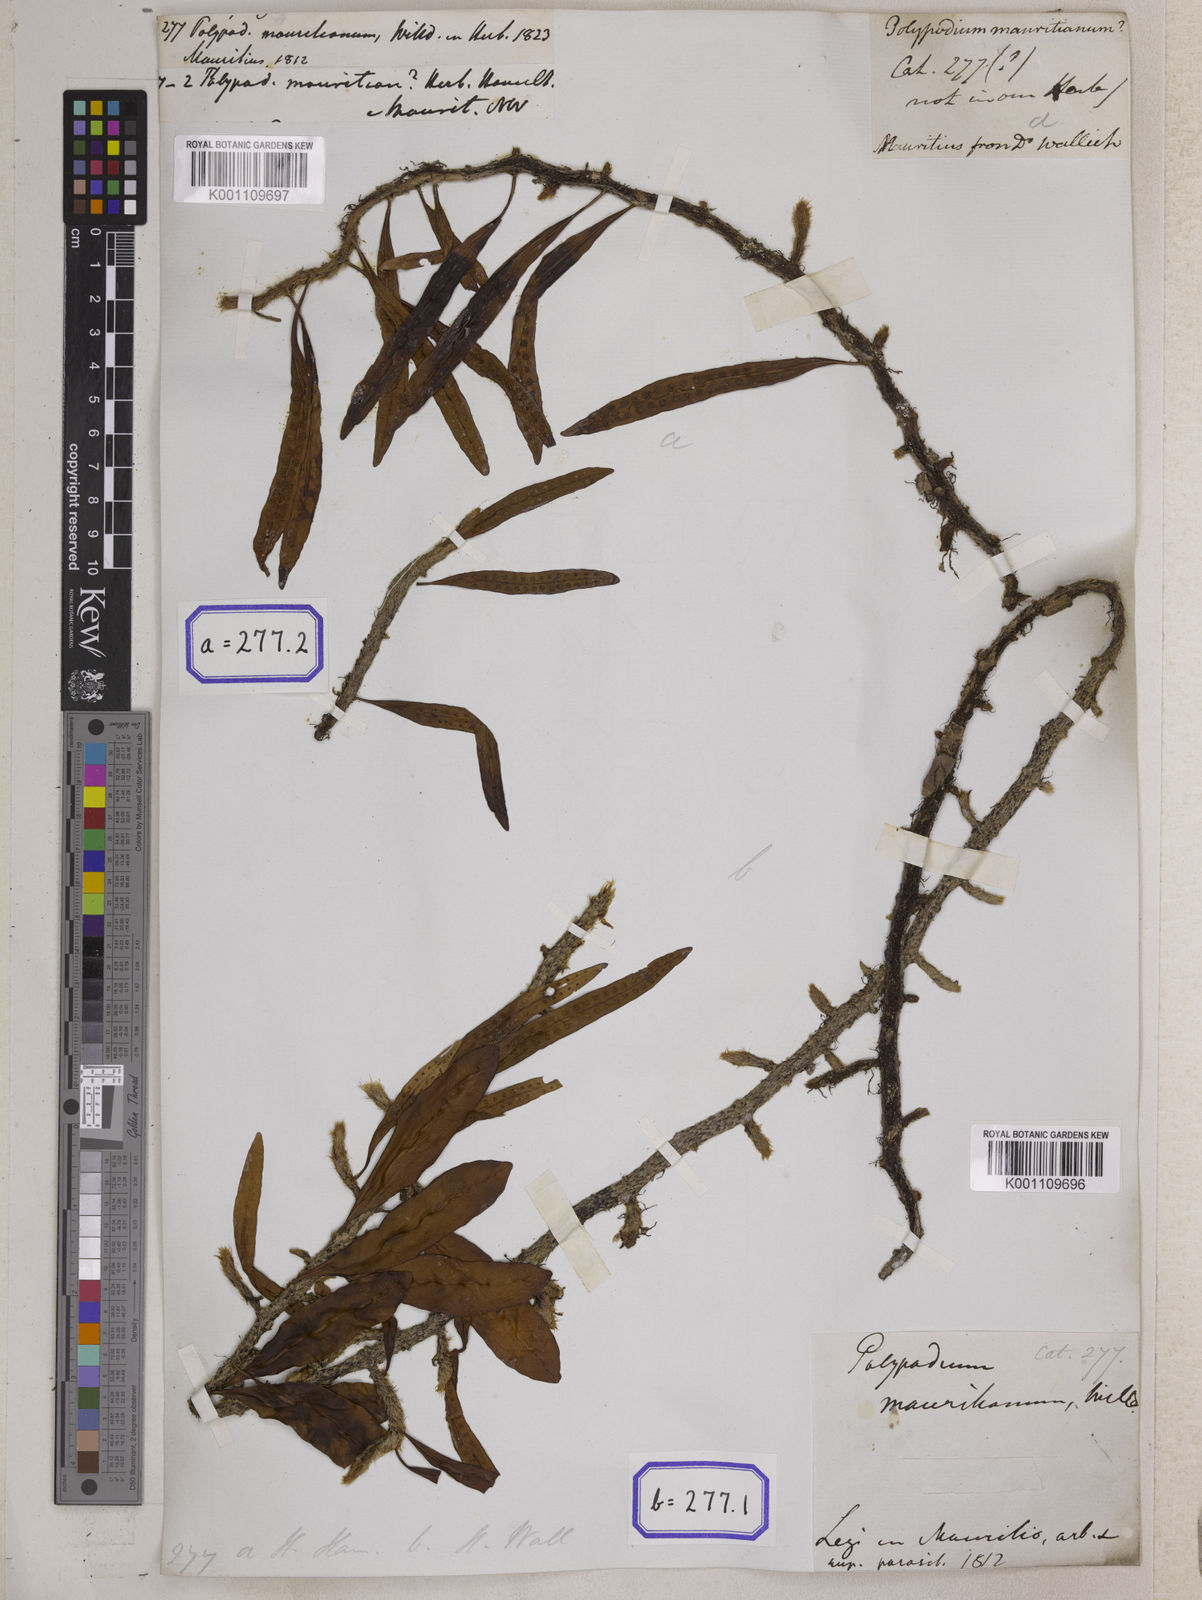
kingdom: Plantae
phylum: Tracheophyta
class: Polypodiopsida
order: Polypodiales
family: Polypodiaceae
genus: Microgramma
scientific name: Microgramma mauritiana
